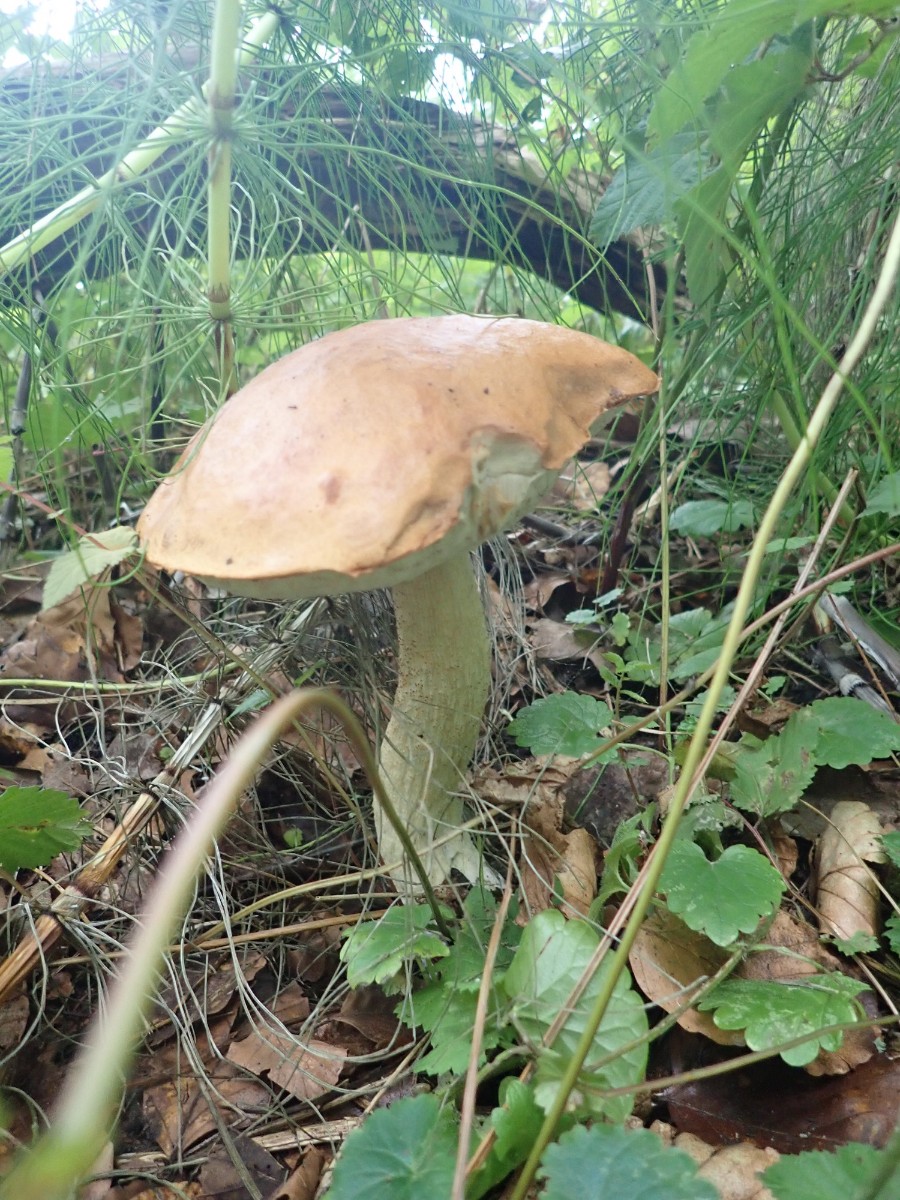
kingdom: Fungi
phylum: Basidiomycota
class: Agaricomycetes
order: Boletales
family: Boletaceae
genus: Leccinum
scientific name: Leccinum albostipitatum
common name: aspe-skælrørhat
